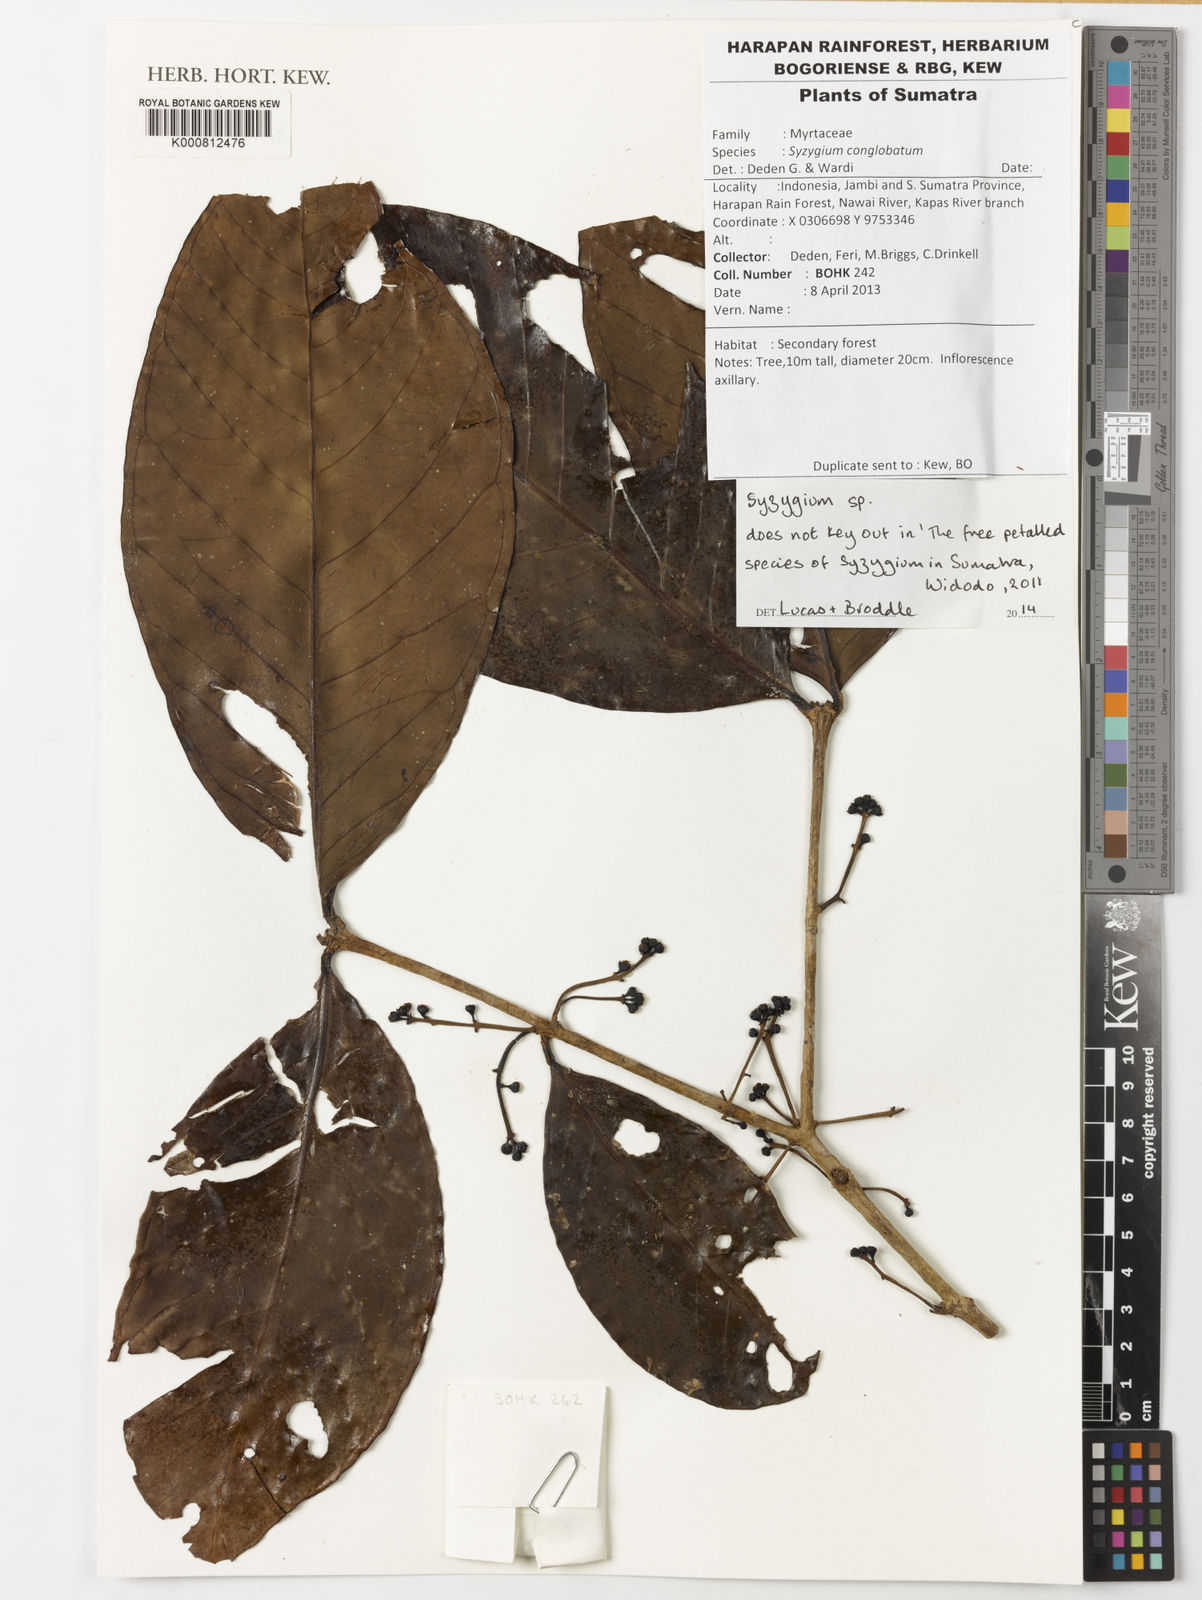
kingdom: Plantae
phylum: Tracheophyta
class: Magnoliopsida
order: Myrtales
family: Myrtaceae
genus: Syzygium
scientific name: Syzygium
